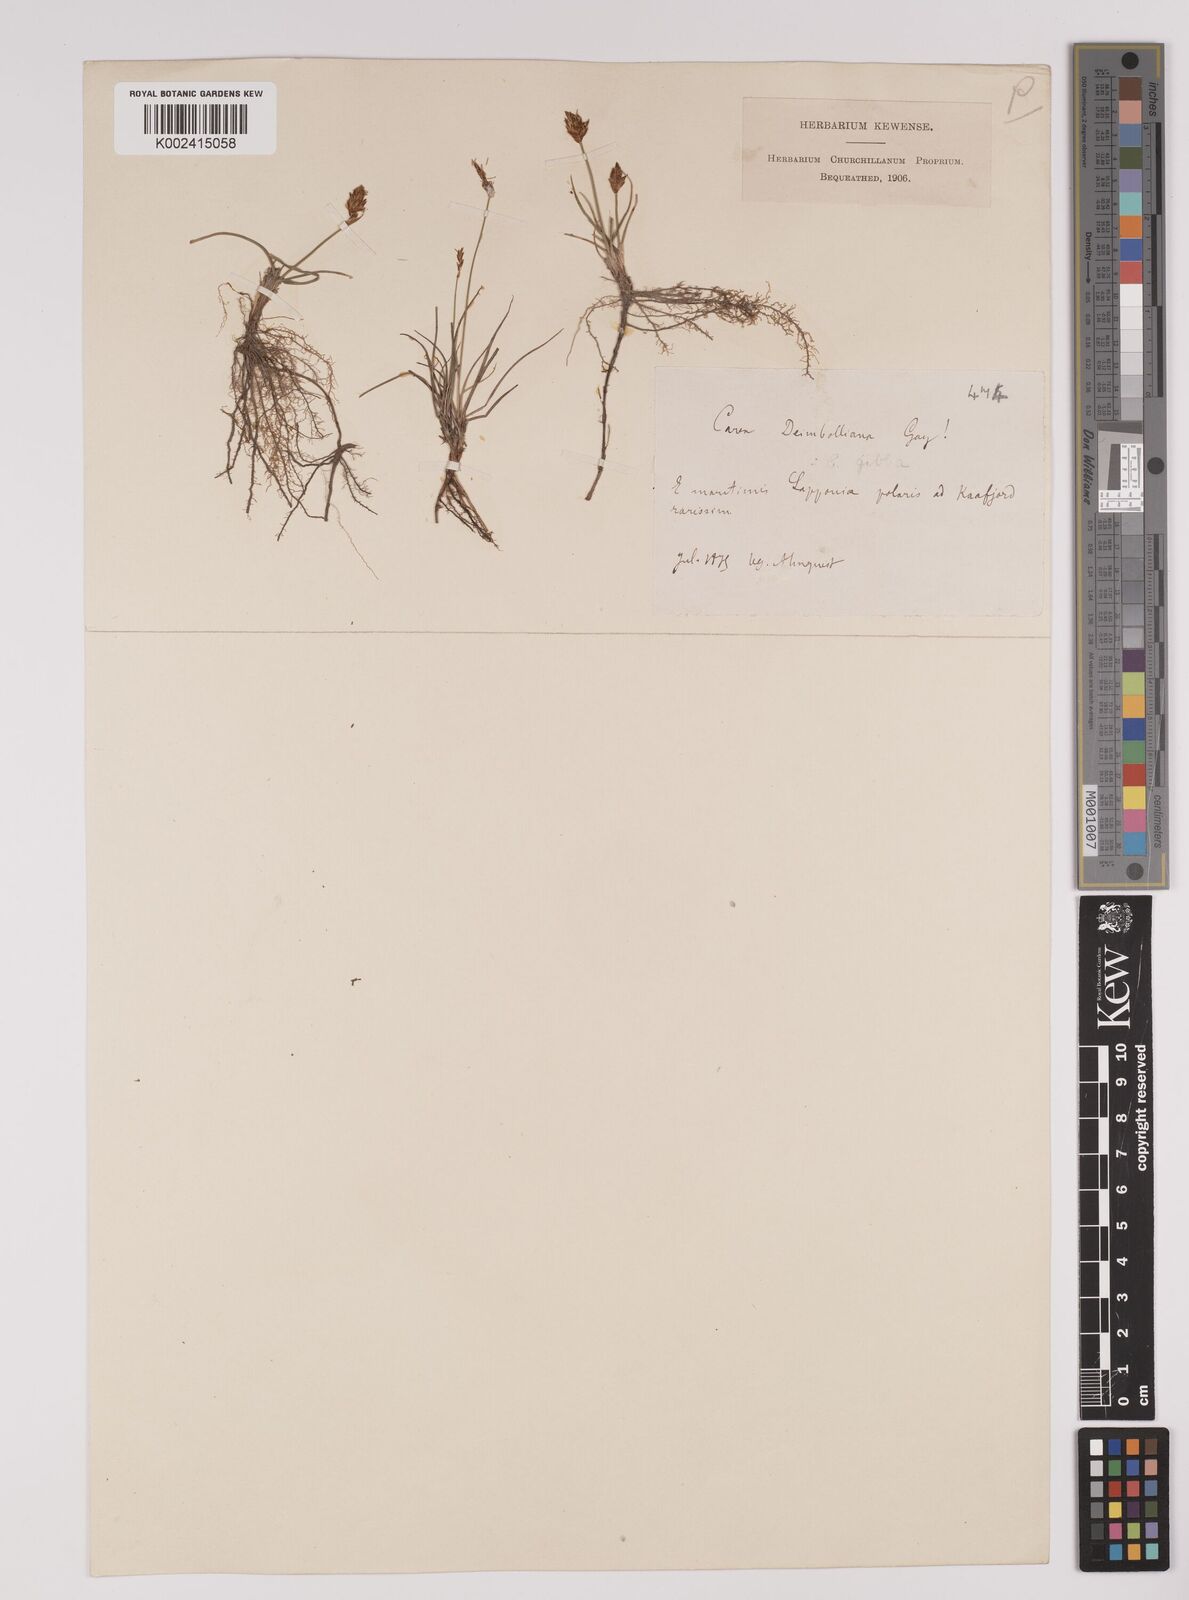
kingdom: Plantae
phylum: Tracheophyta
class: Liliopsida
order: Poales
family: Cyperaceae
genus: Carex
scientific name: Carex dioica
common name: Dioecious sedge
